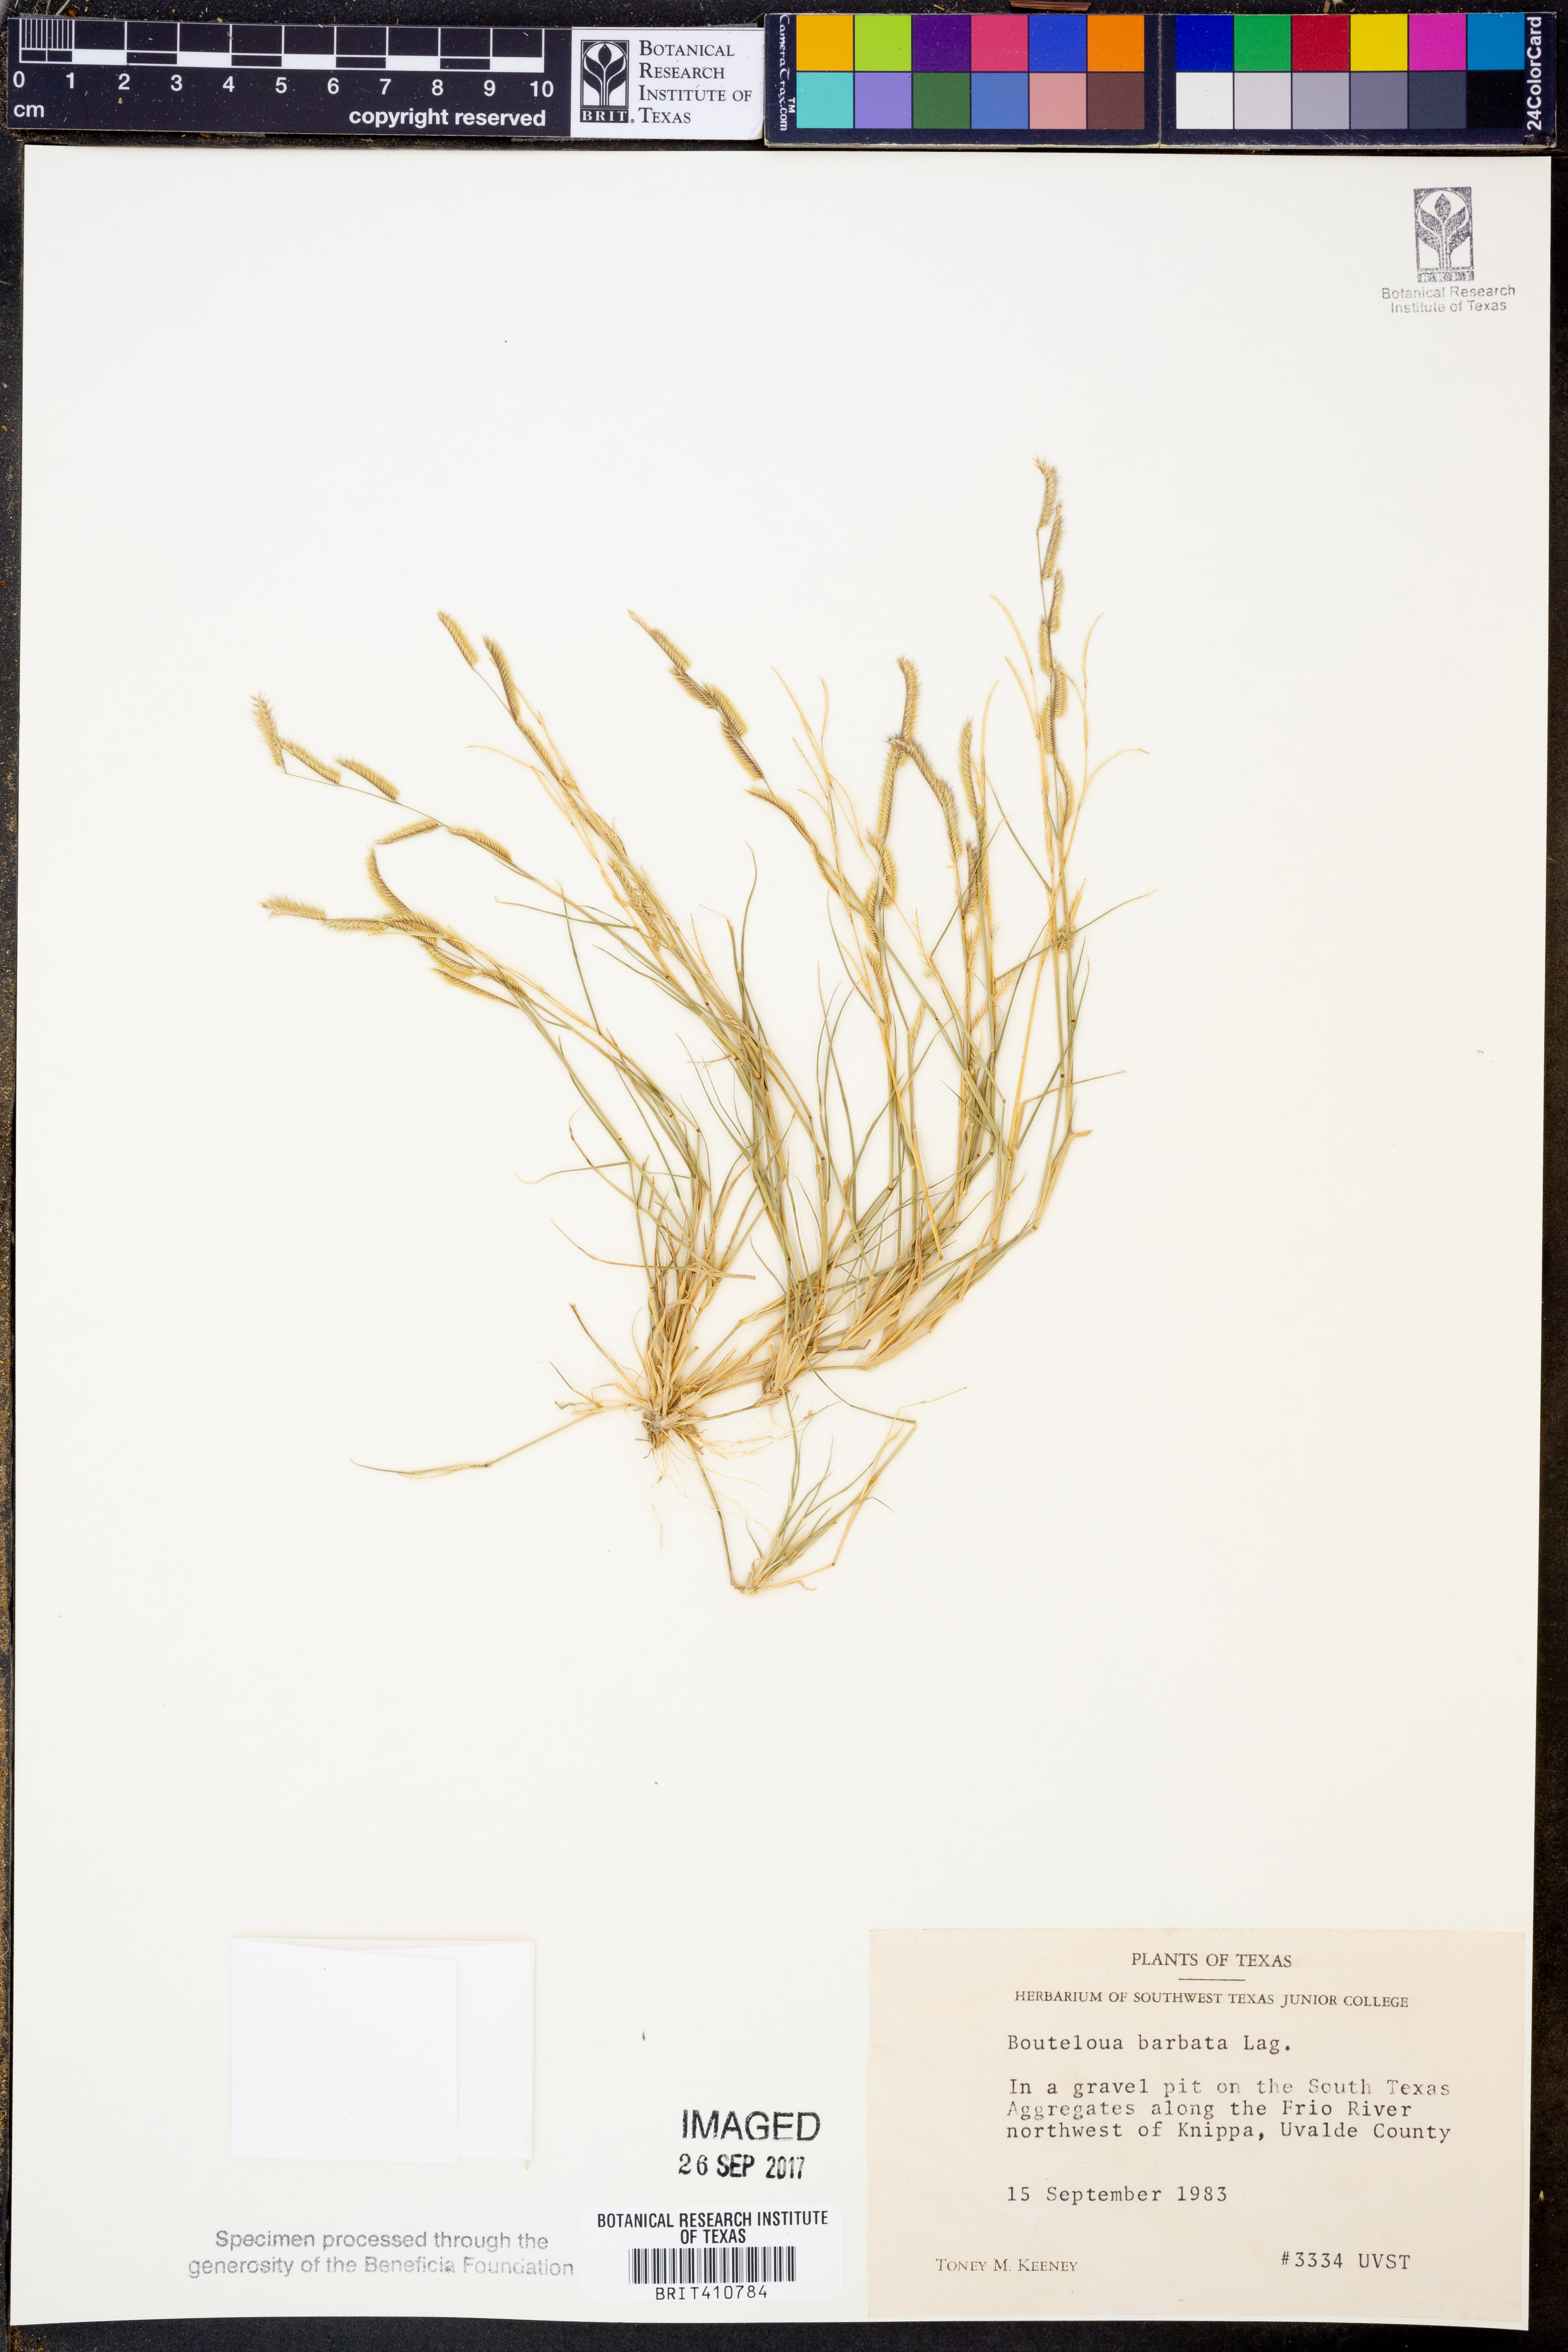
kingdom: Plantae
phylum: Tracheophyta
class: Liliopsida
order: Poales
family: Poaceae
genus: Bouteloua
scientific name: Bouteloua barbata
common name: Six-weeks grama
